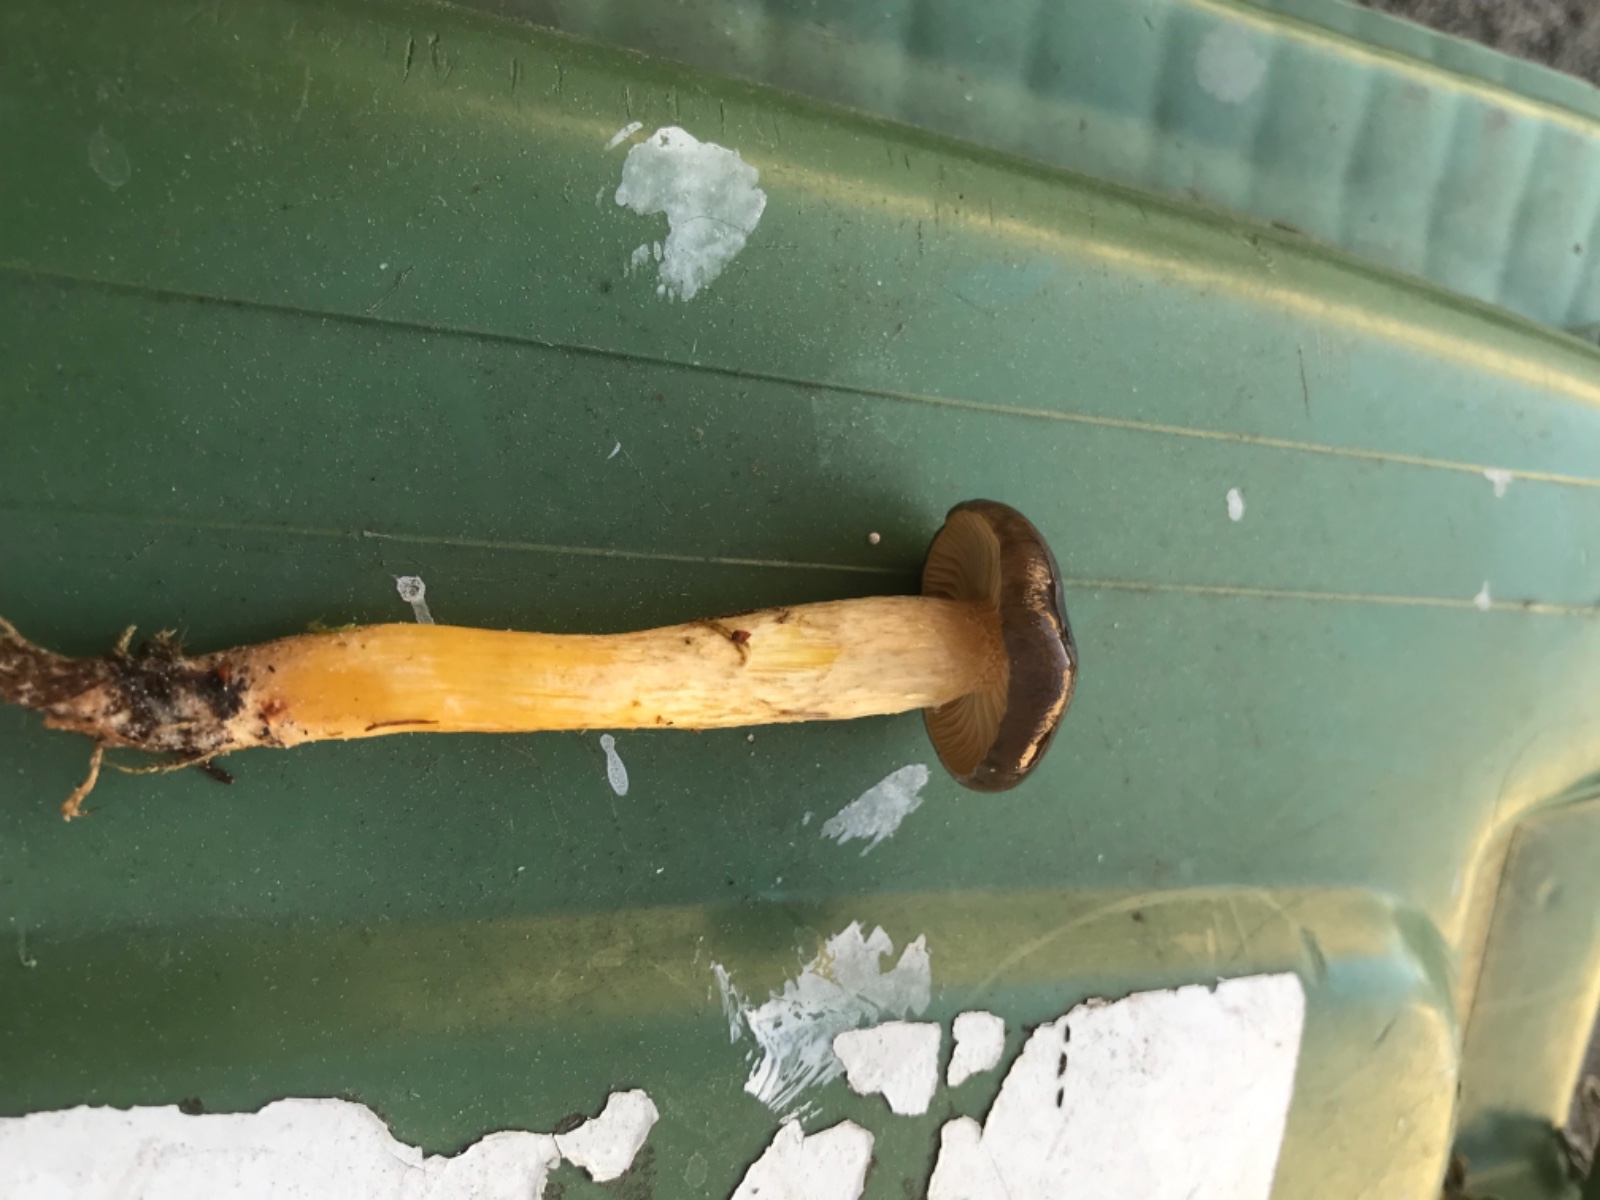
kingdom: Fungi
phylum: Basidiomycota
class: Agaricomycetes
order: Agaricales
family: Hygrophoraceae
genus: Hygrophorus
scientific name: Hygrophorus hypothejus
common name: frost-sneglehat
